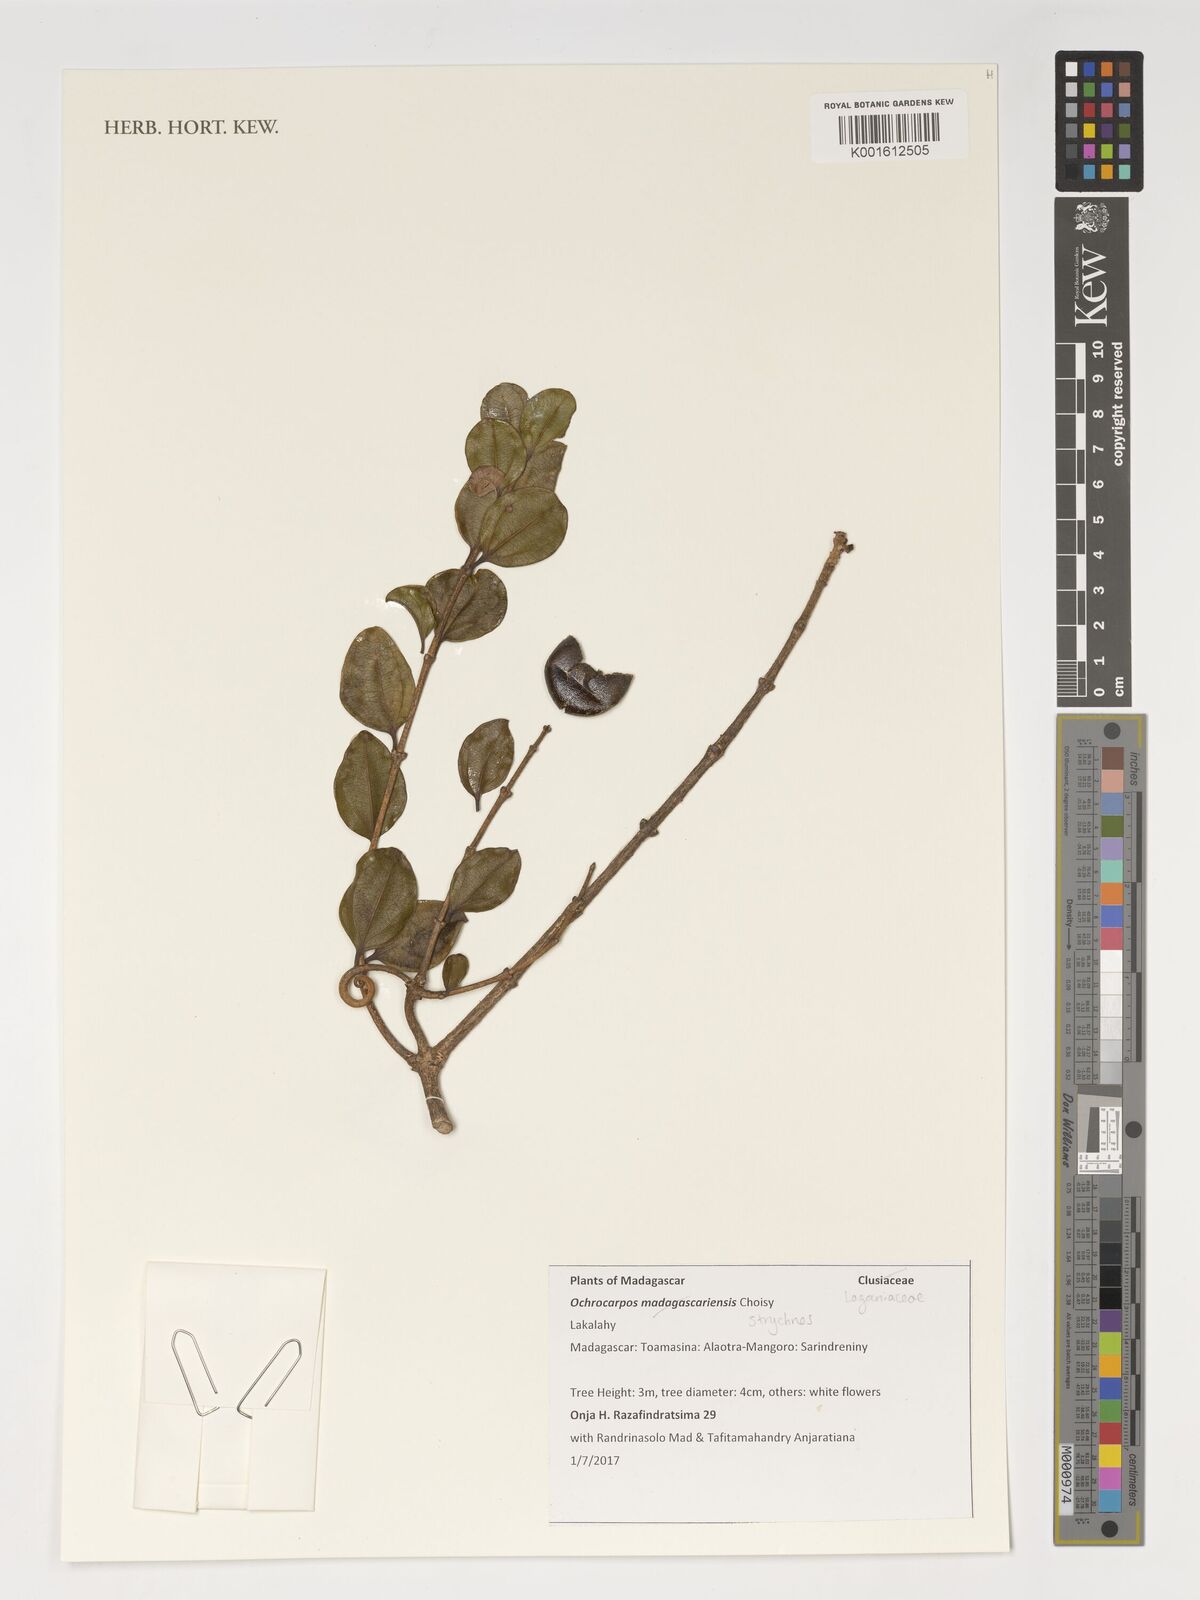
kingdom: Plantae
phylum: Tracheophyta
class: Magnoliopsida
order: Gentianales
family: Loganiaceae
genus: Strychnos
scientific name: Strychnos
